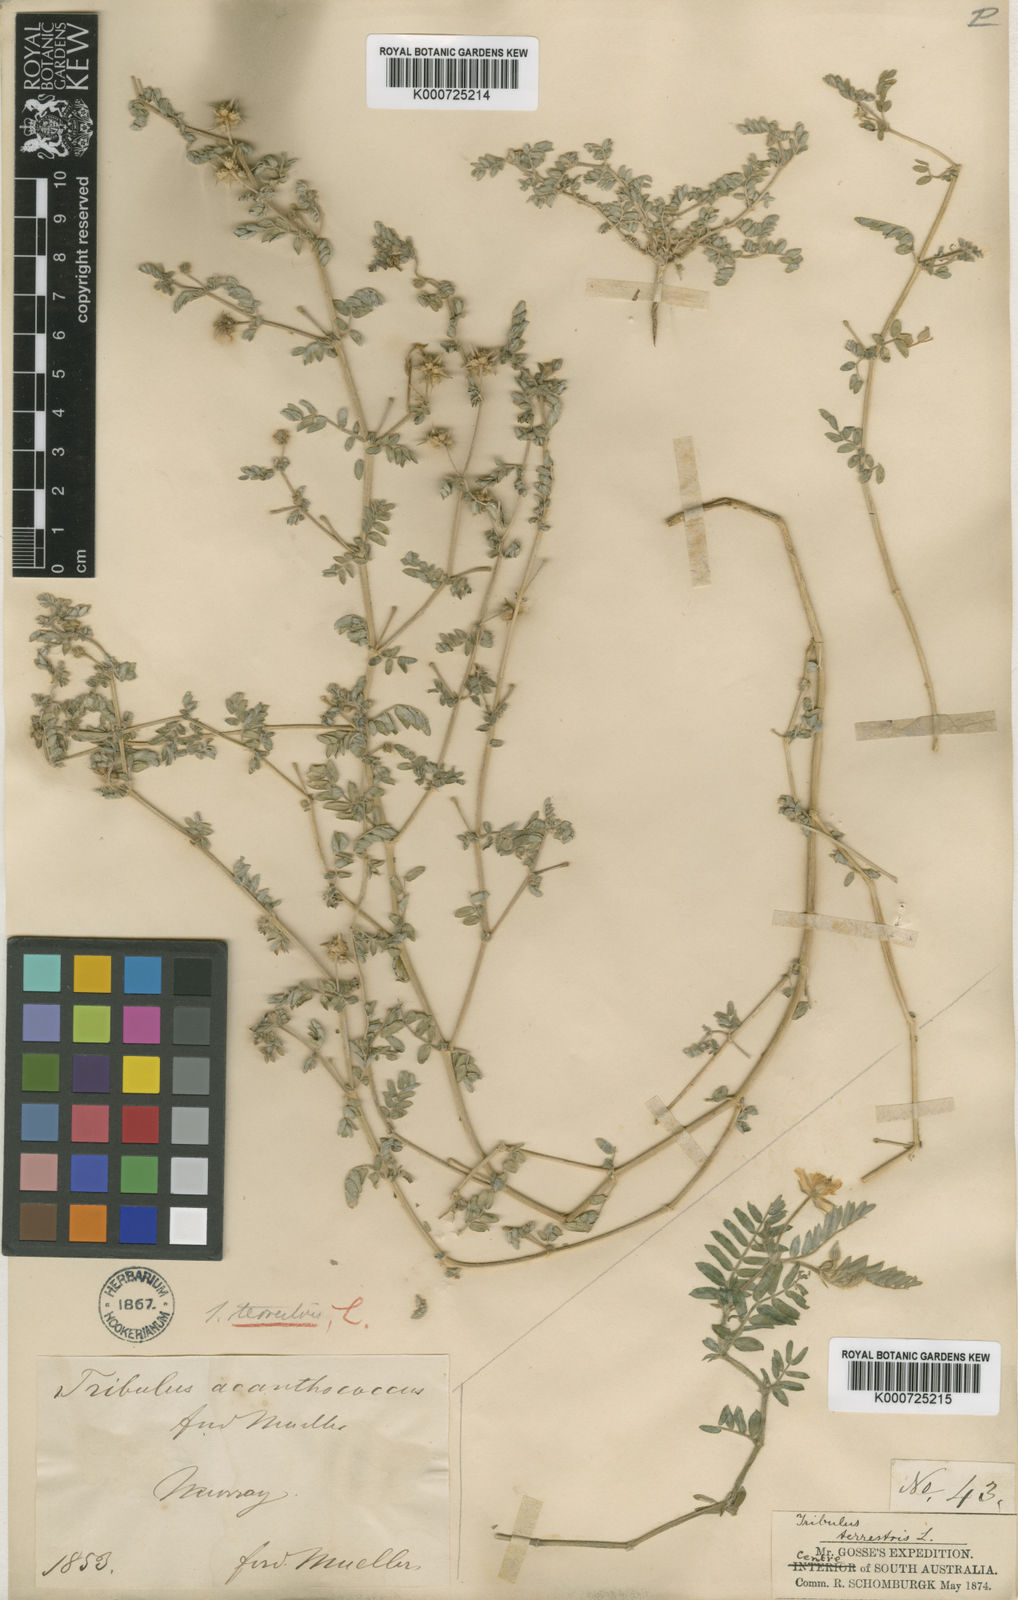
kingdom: Plantae
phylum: Tracheophyta
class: Magnoliopsida
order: Zygophyllales
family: Zygophyllaceae
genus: Tribulus
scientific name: Tribulus terrestris
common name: Puncturevine
